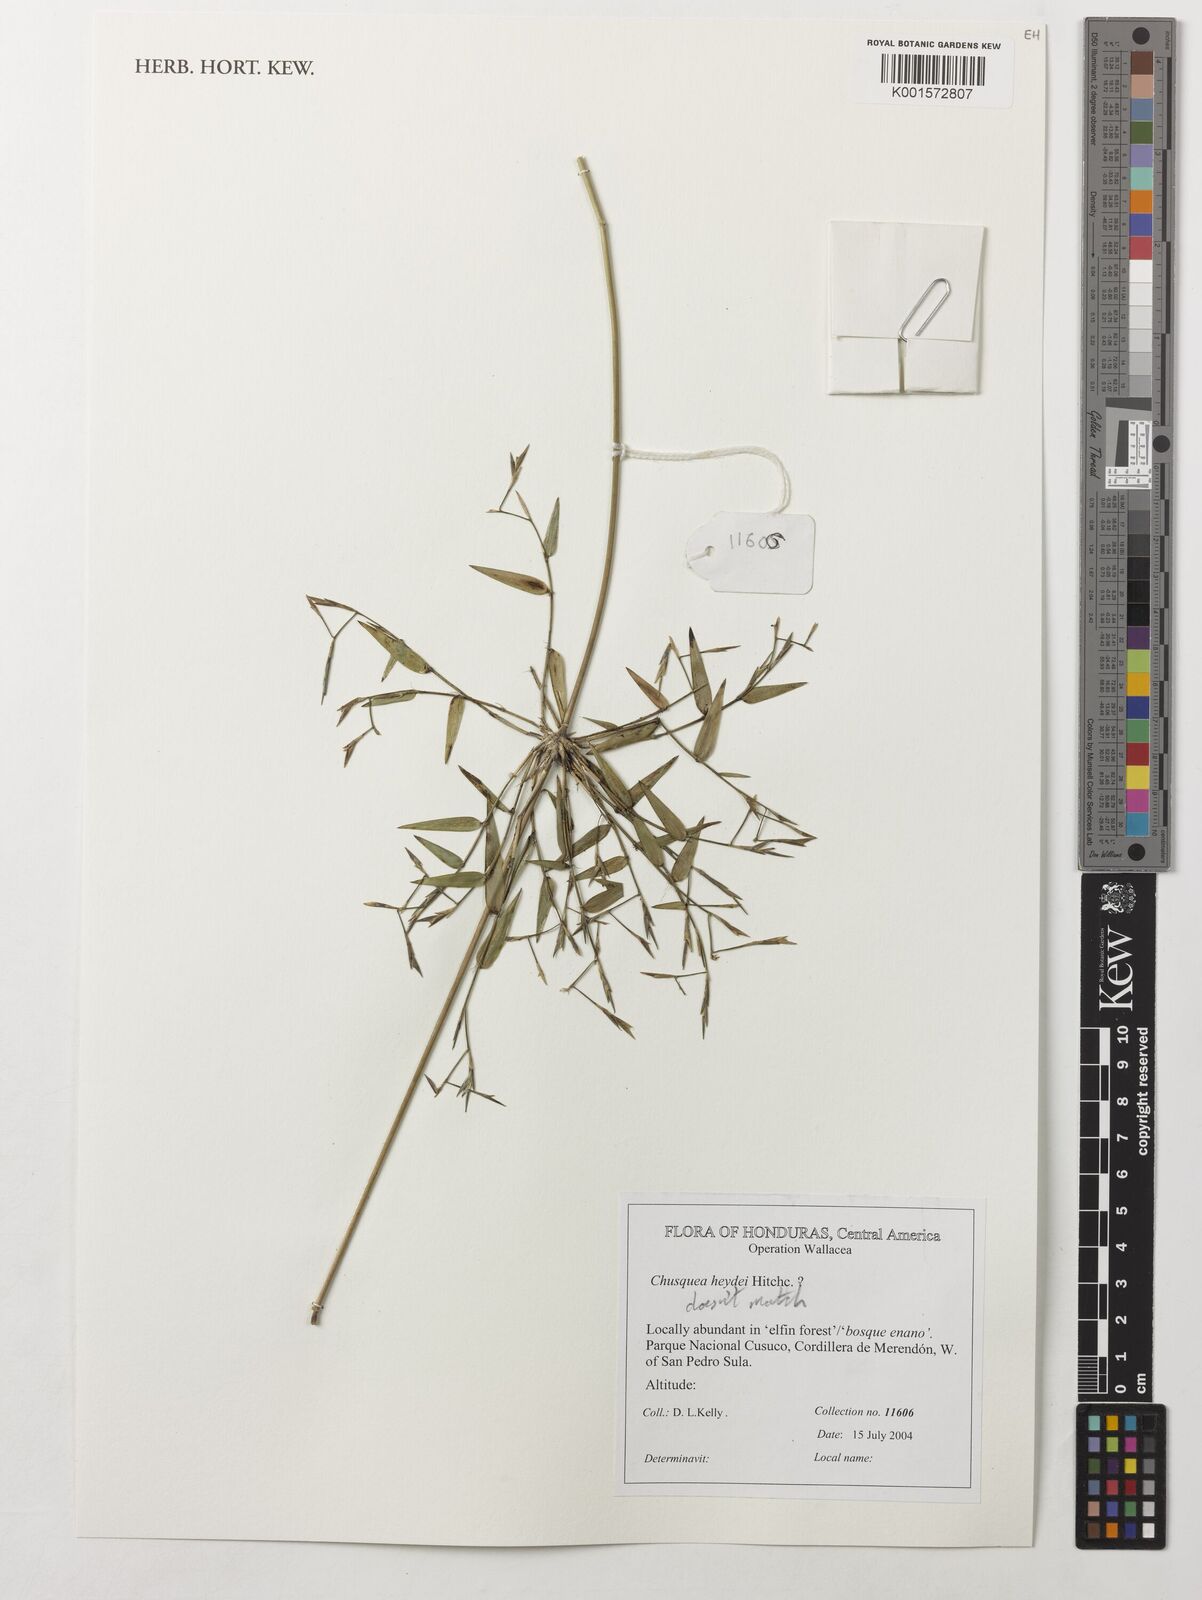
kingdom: Plantae
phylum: Tracheophyta
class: Liliopsida
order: Poales
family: Poaceae
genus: Chusquea
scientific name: Chusquea liebmannii
